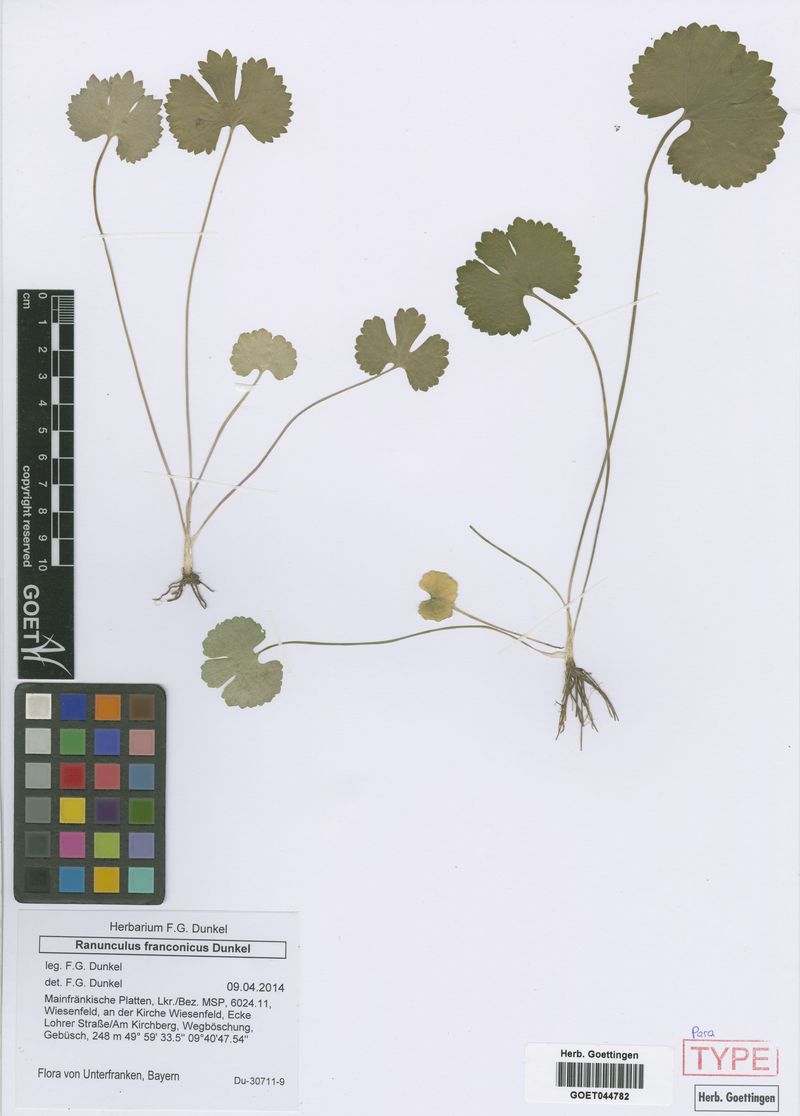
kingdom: Plantae
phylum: Tracheophyta
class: Magnoliopsida
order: Ranunculales
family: Ranunculaceae
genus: Ranunculus
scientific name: Ranunculus franconicus
